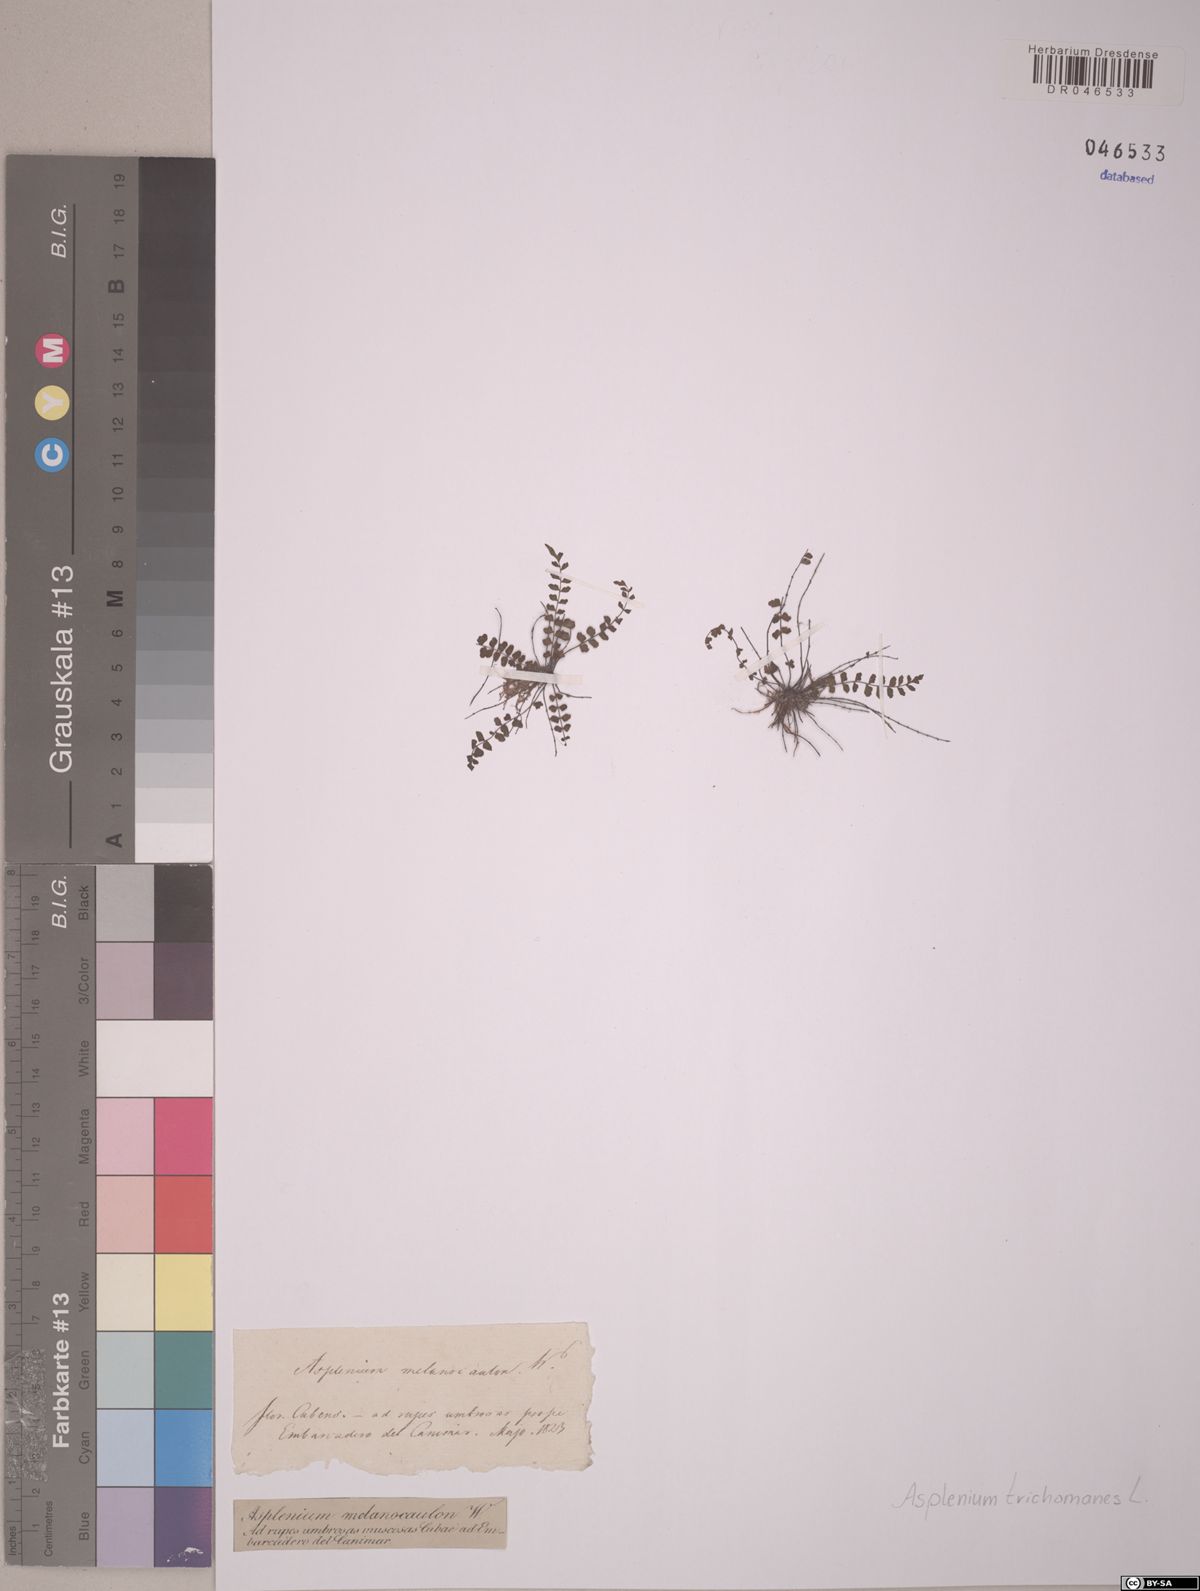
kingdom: Plantae
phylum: Tracheophyta
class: Polypodiopsida
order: Polypodiales
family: Aspleniaceae
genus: Asplenium
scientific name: Asplenium heterochroum
